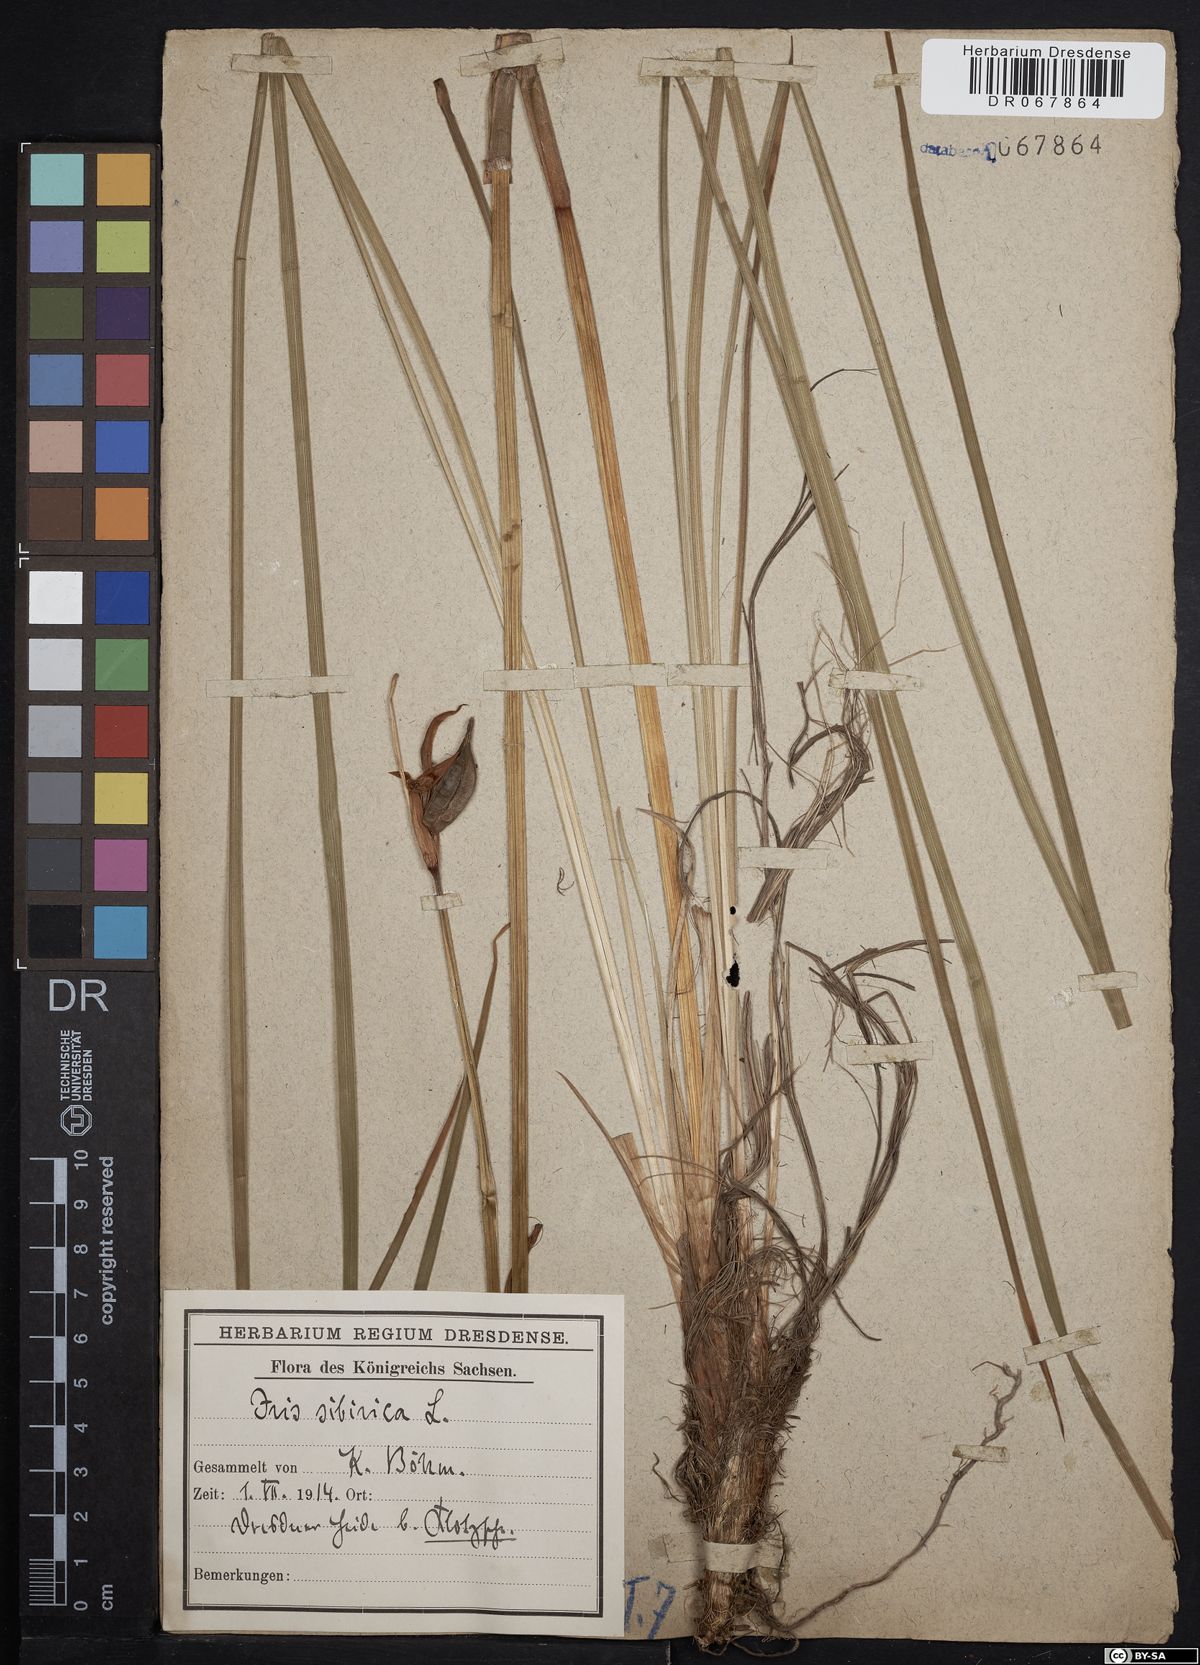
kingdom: Plantae
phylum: Tracheophyta
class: Liliopsida
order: Asparagales
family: Iridaceae
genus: Iris
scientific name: Iris sibirica
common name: Siberian iris
